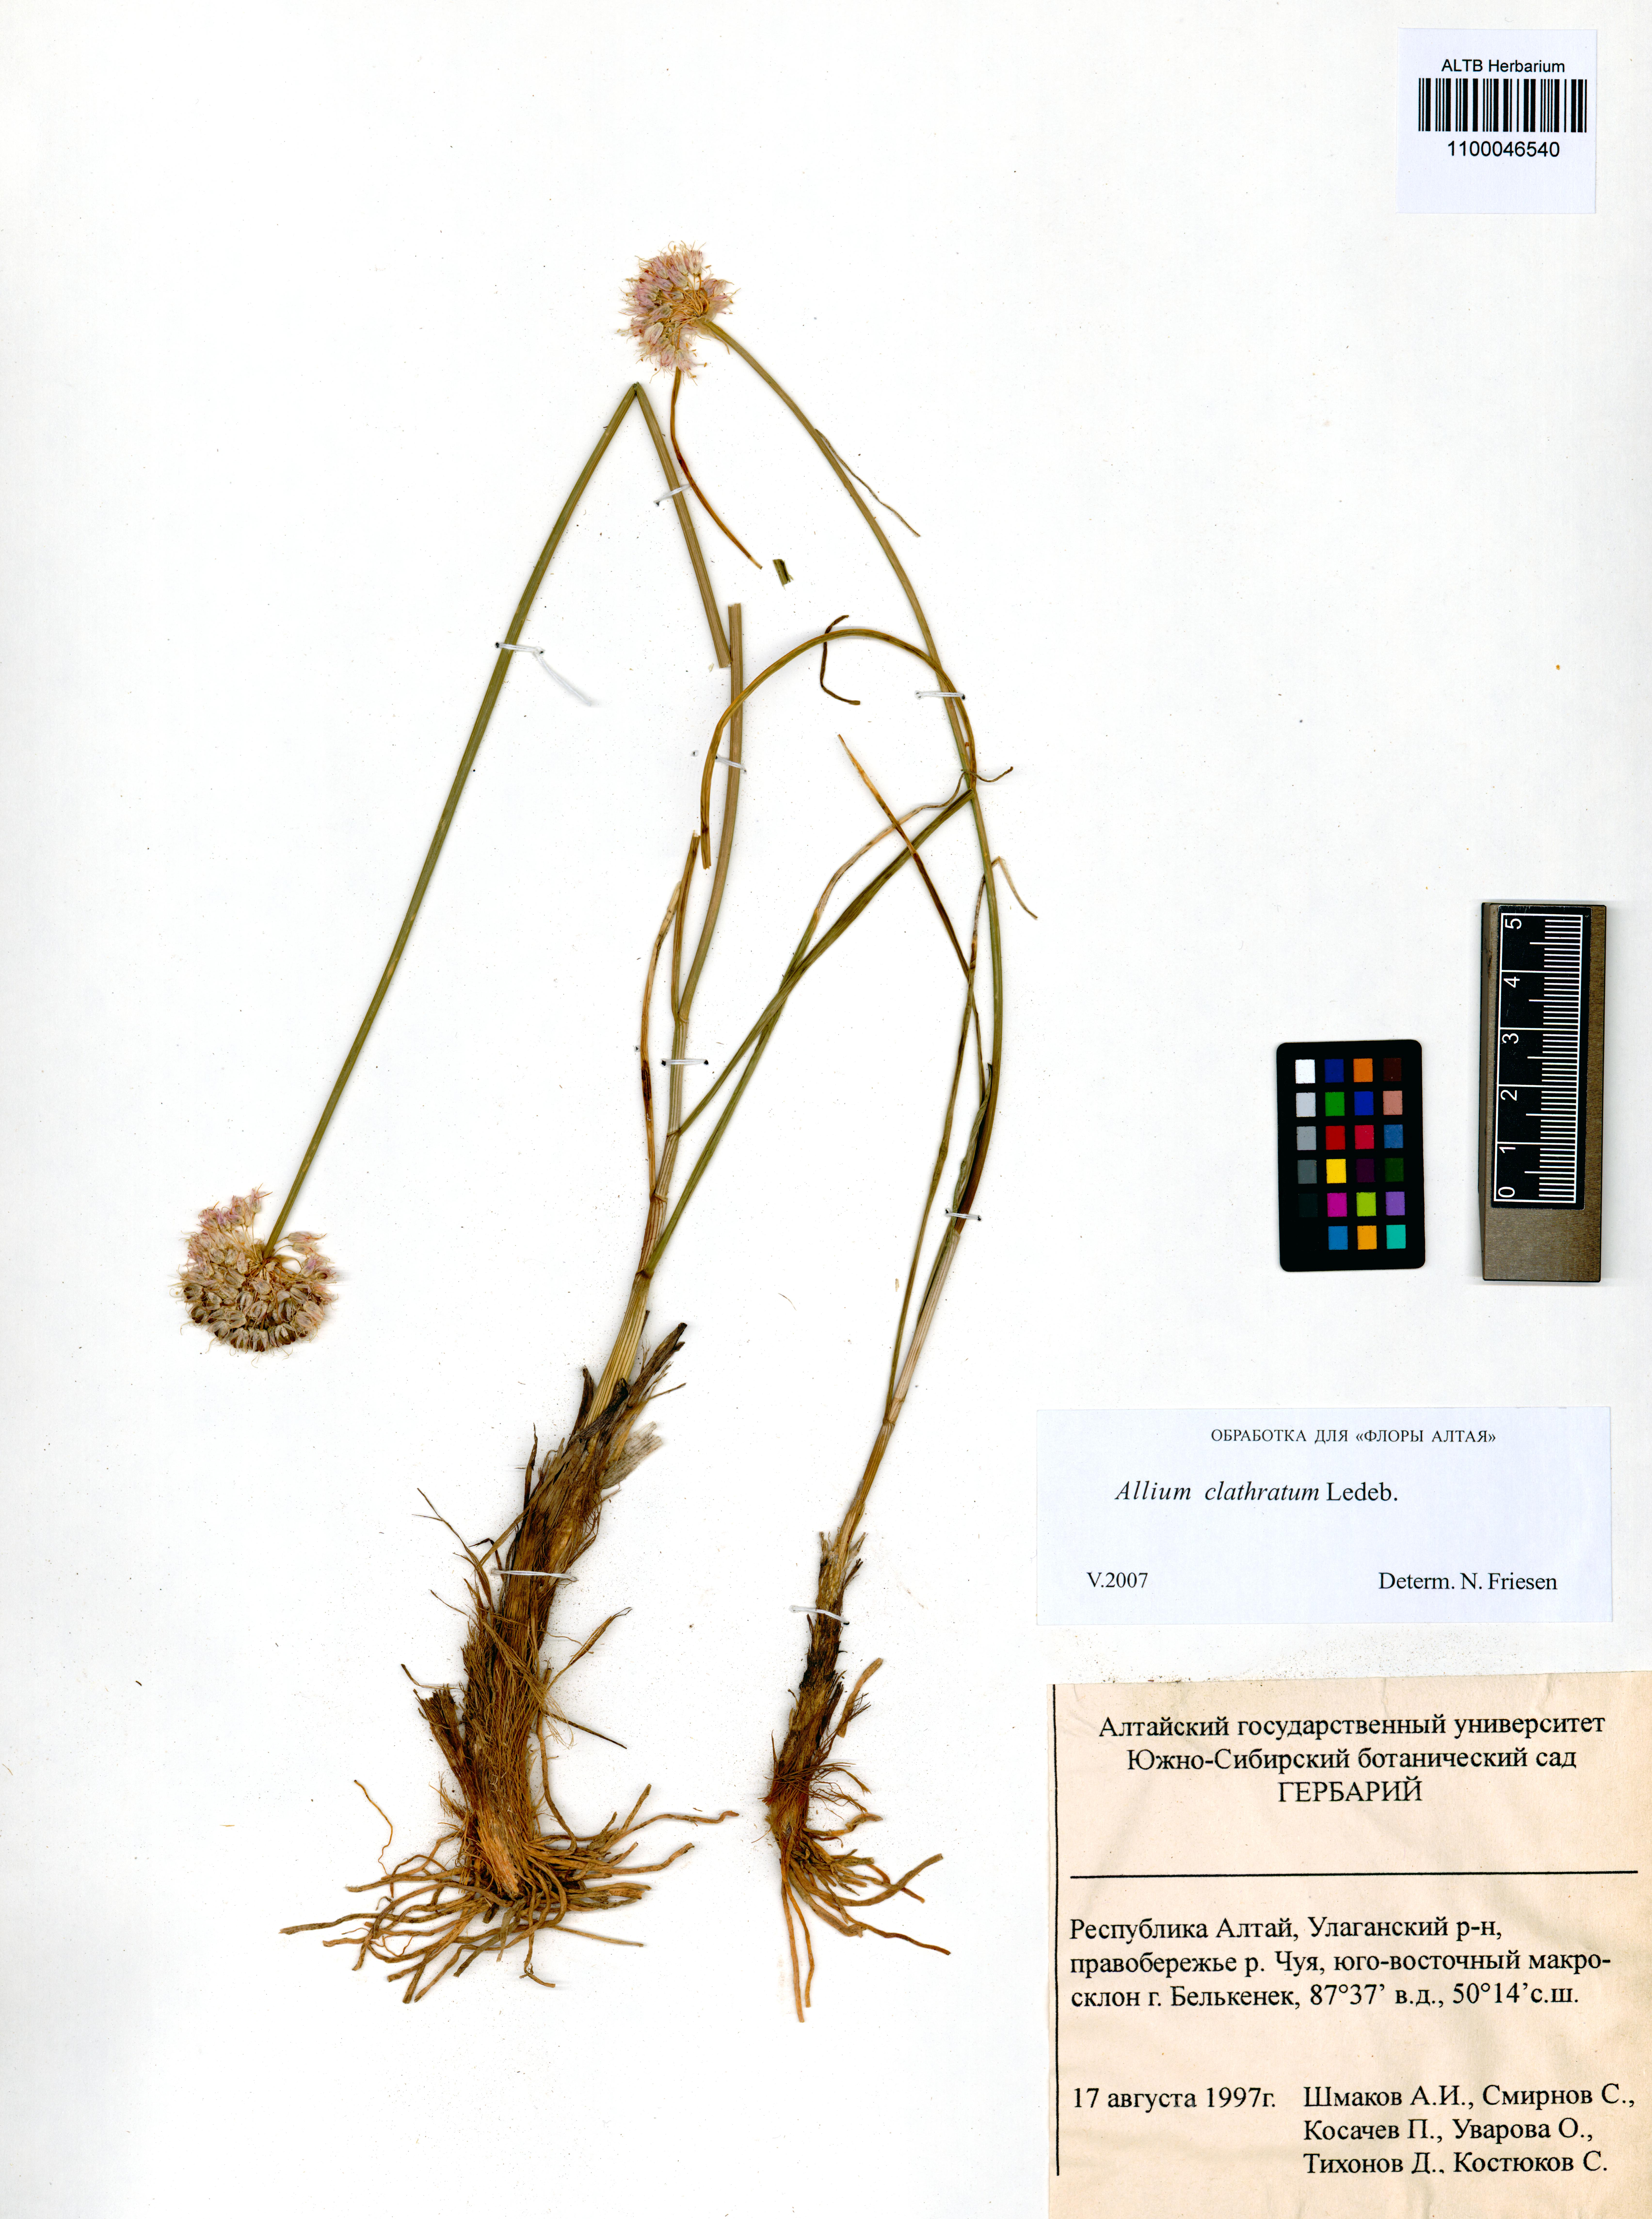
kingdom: Plantae
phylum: Tracheophyta
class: Liliopsida
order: Asparagales
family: Amaryllidaceae
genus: Allium
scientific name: Allium clathratum
